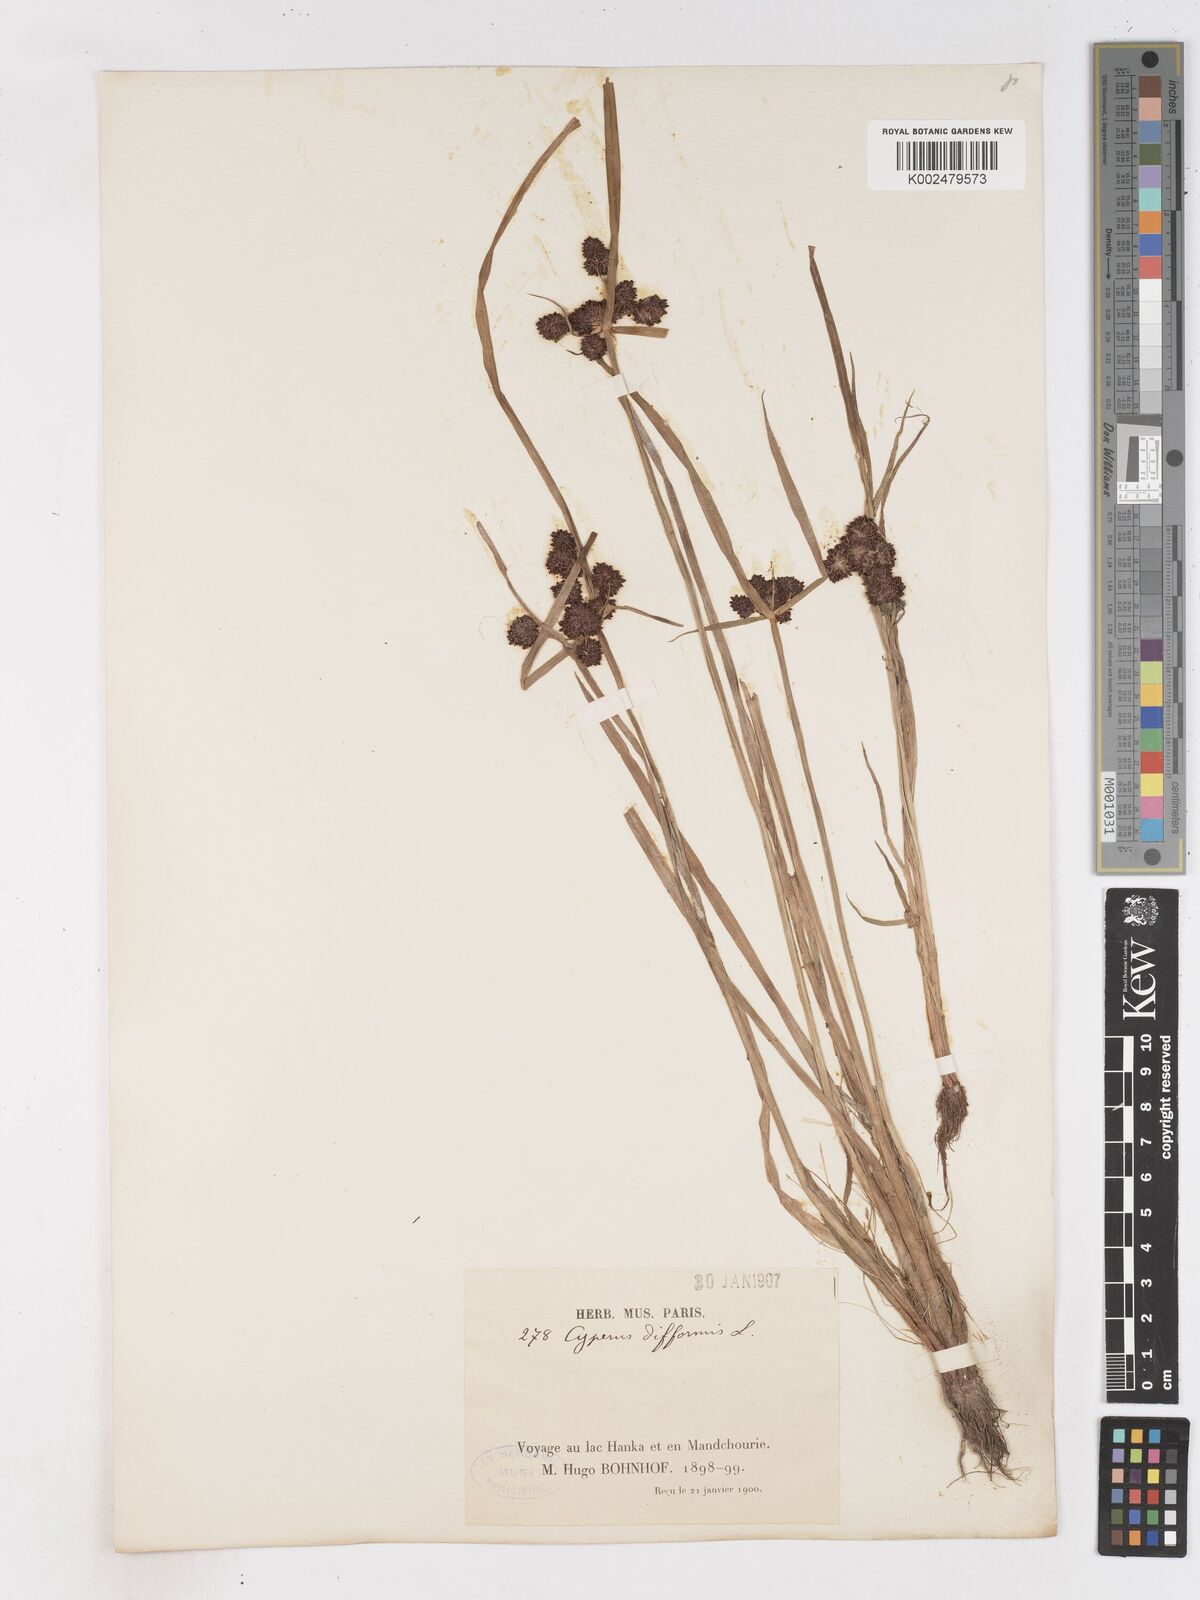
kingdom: Plantae
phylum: Tracheophyta
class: Liliopsida
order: Poales
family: Cyperaceae
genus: Cyperus
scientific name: Cyperus difformis
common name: Variable flatsedge
